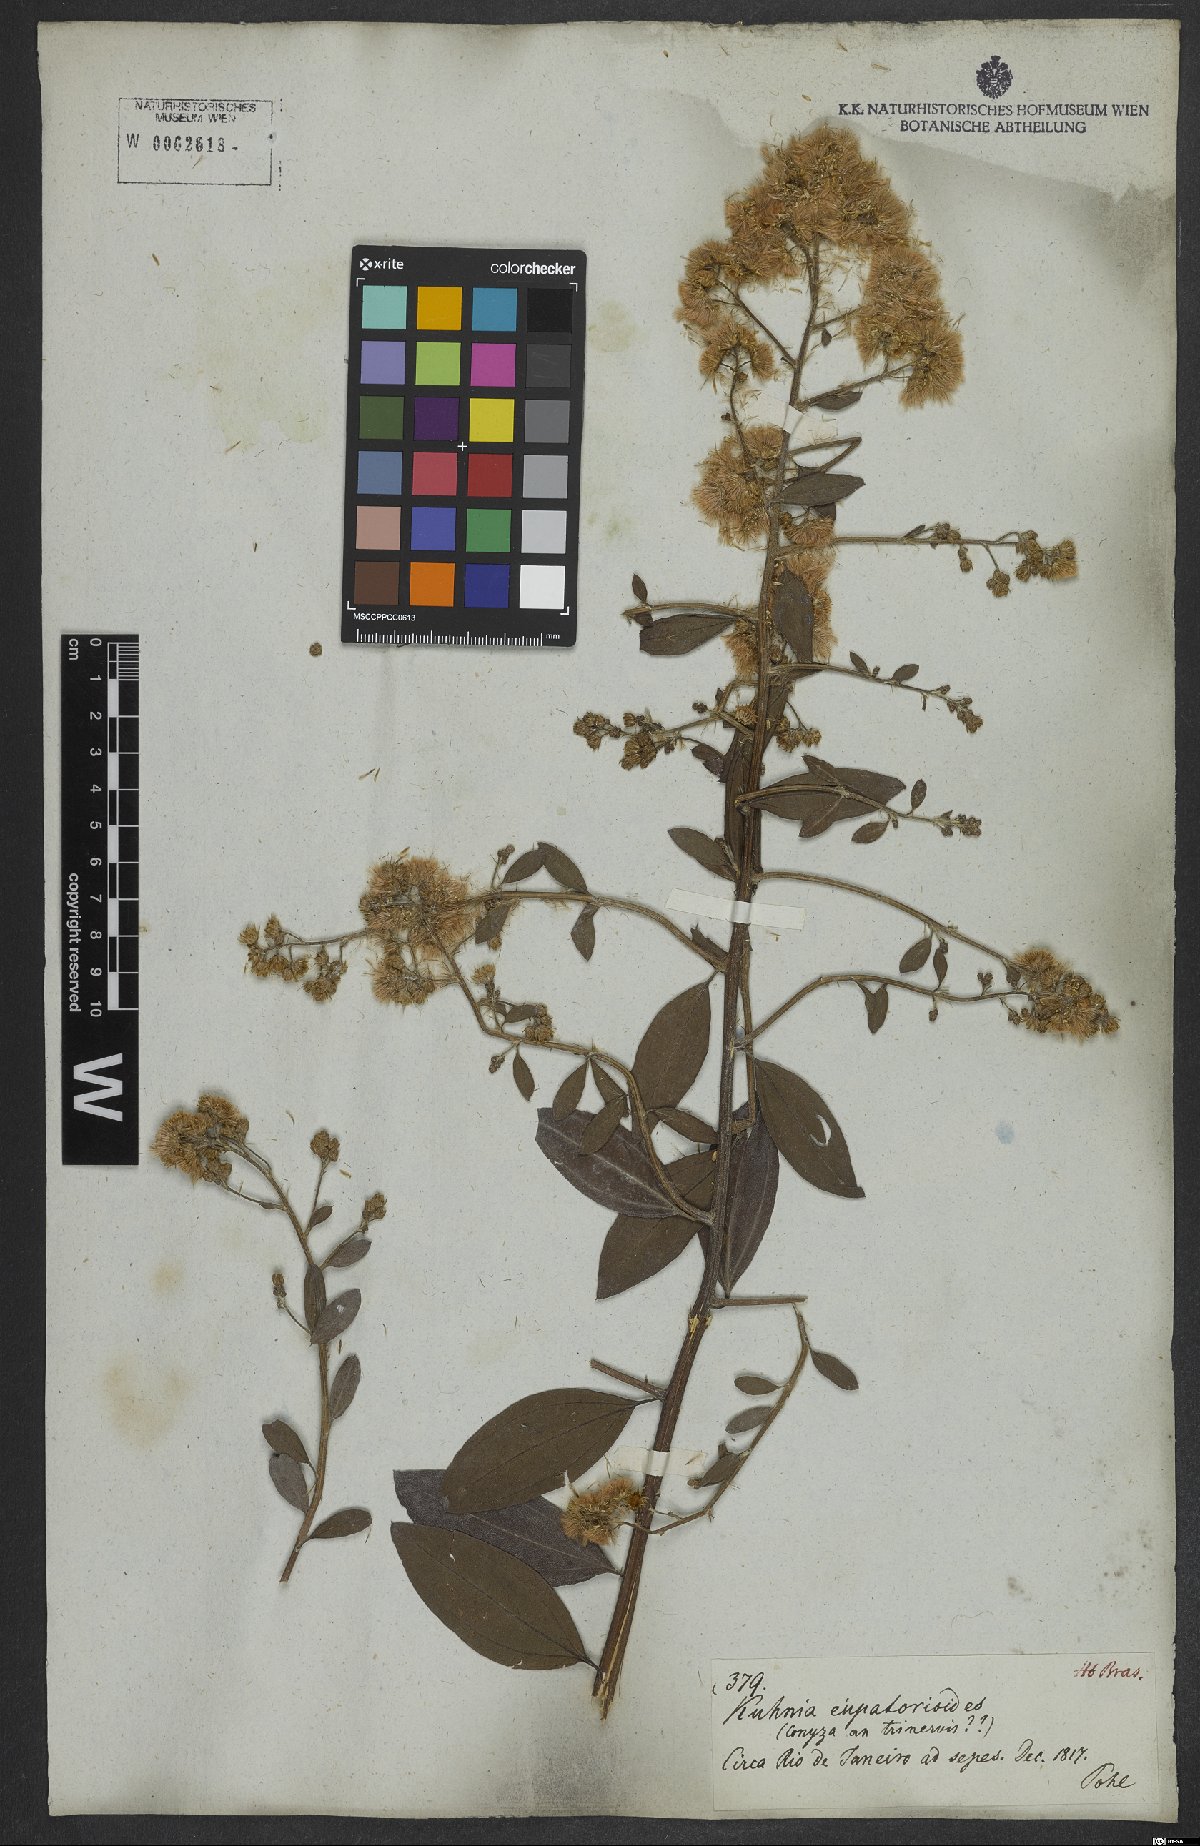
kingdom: Plantae
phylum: Tracheophyta
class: Magnoliopsida
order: Asterales
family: Asteraceae
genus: Baccharis
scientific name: Baccharis trinervis
